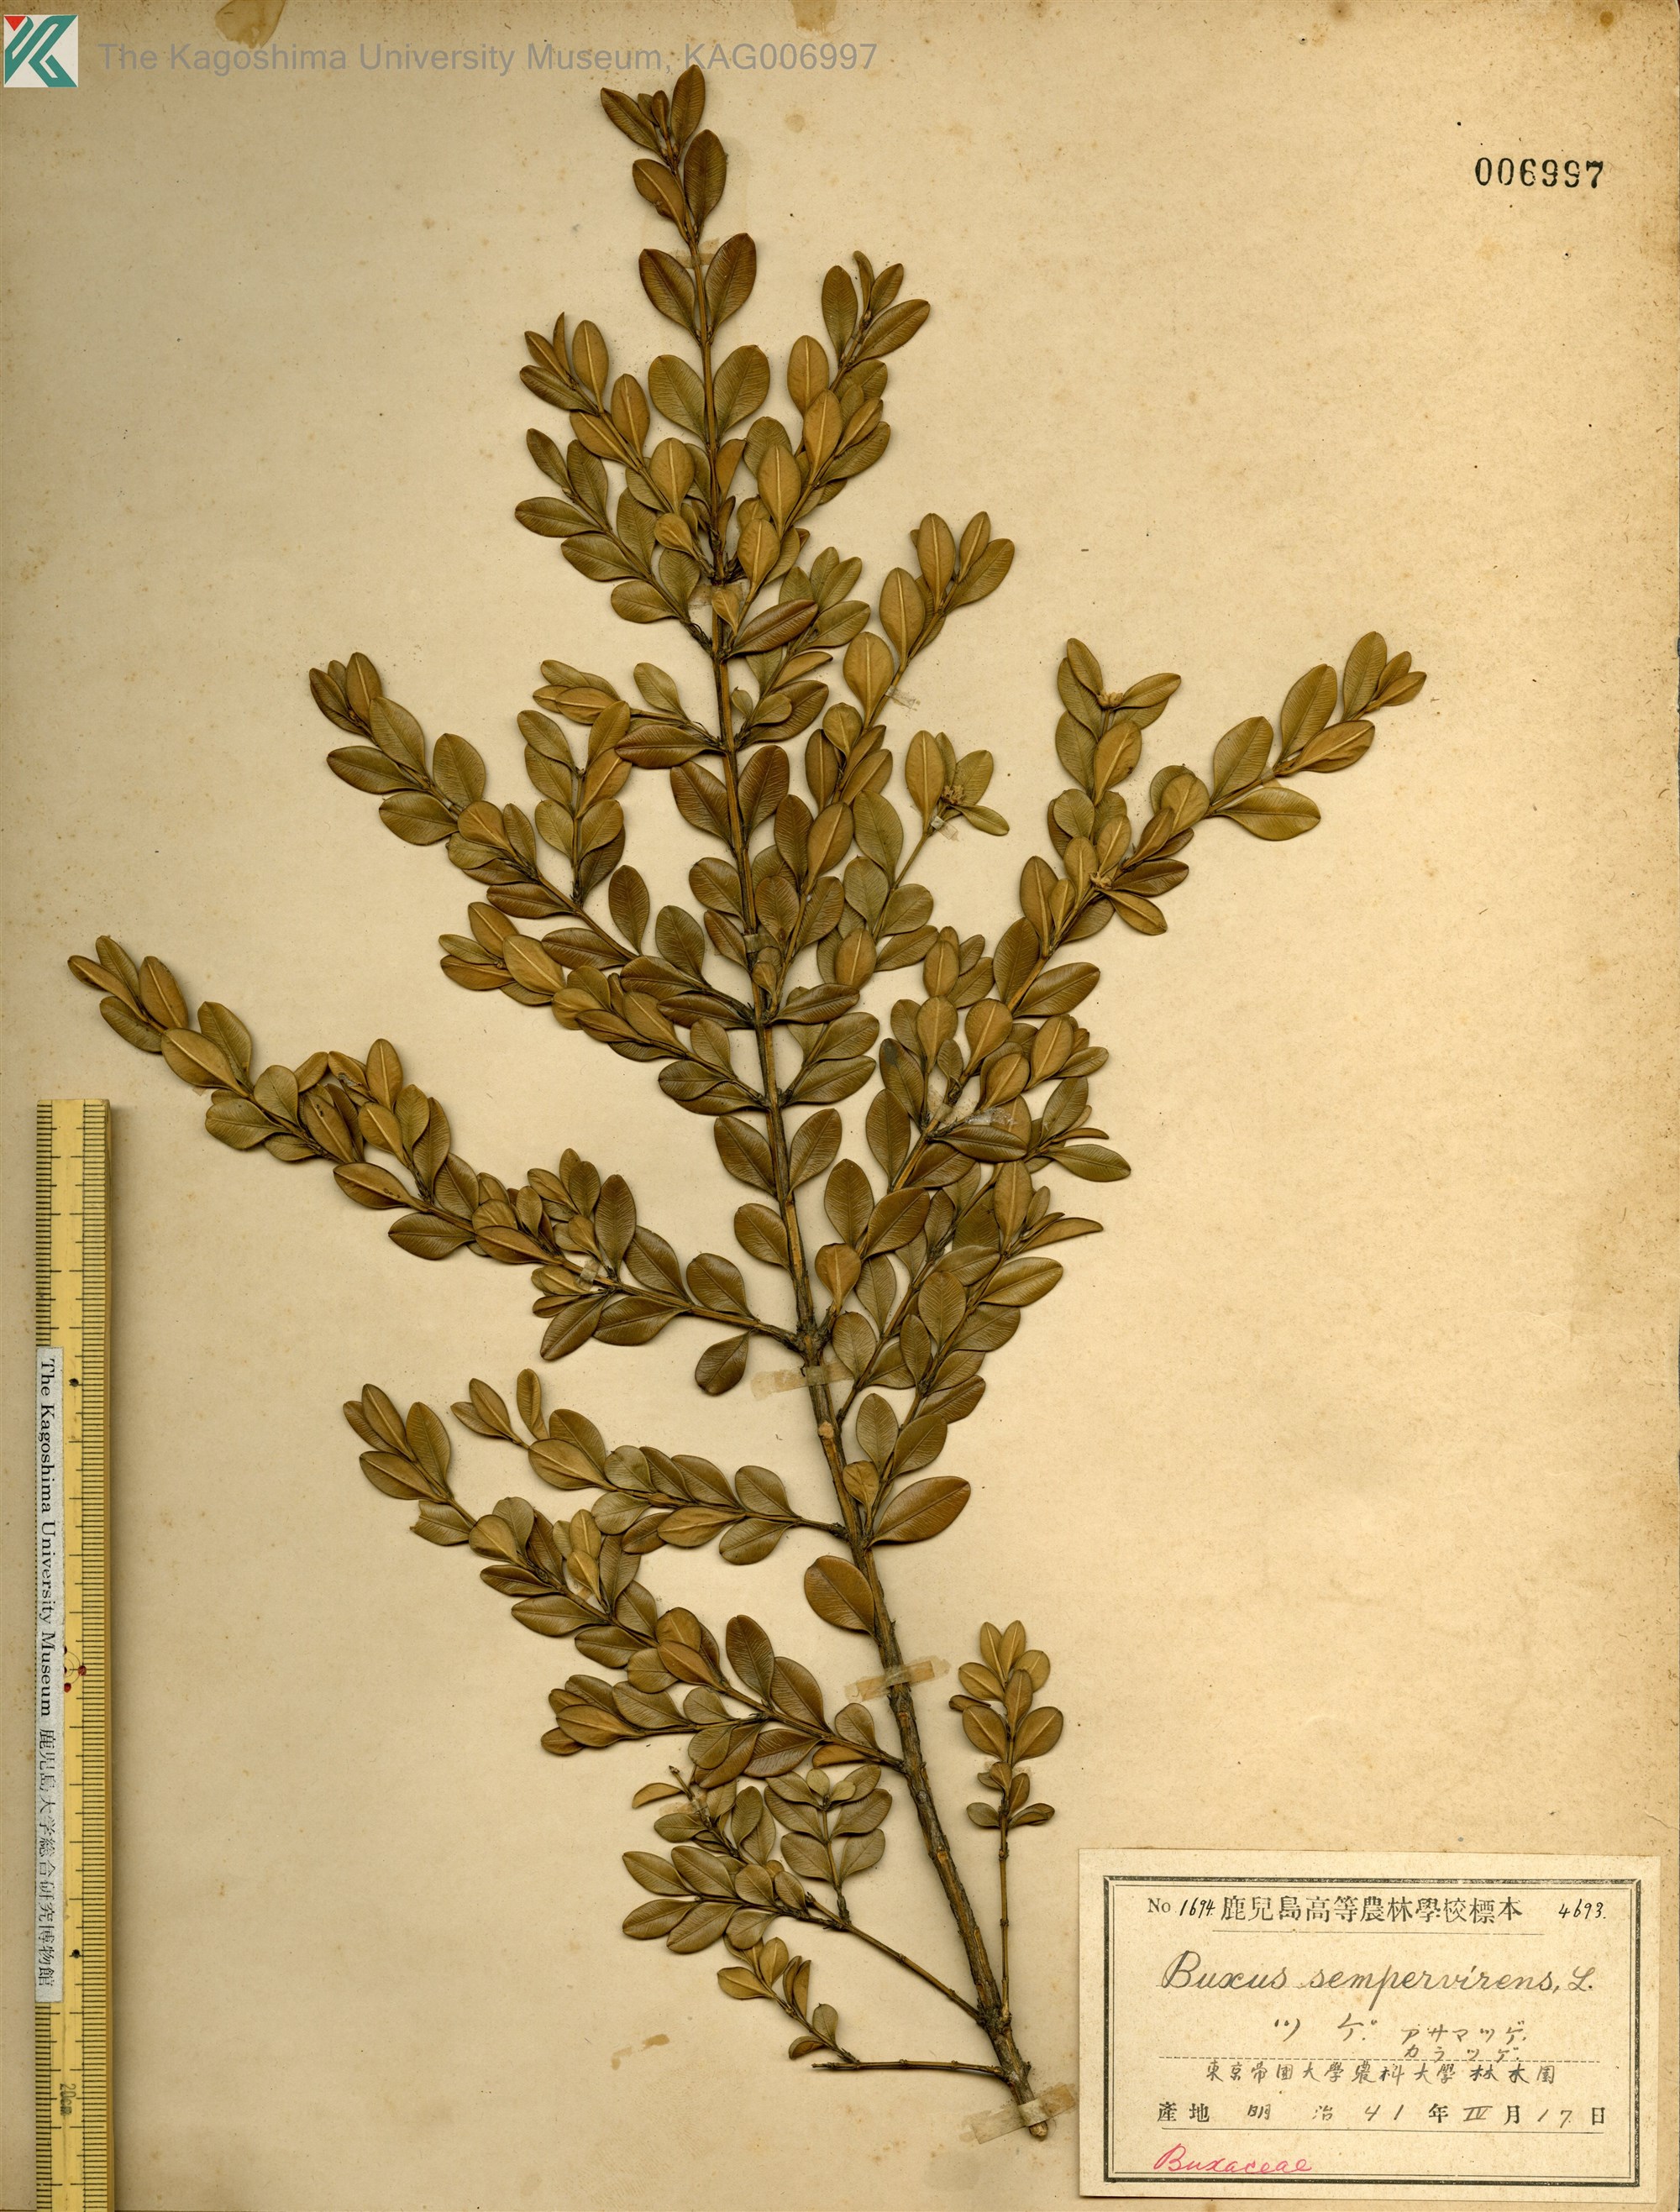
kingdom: Plantae
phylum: Tracheophyta
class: Magnoliopsida
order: Buxales
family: Buxaceae
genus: Buxus
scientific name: Buxus microphylla
